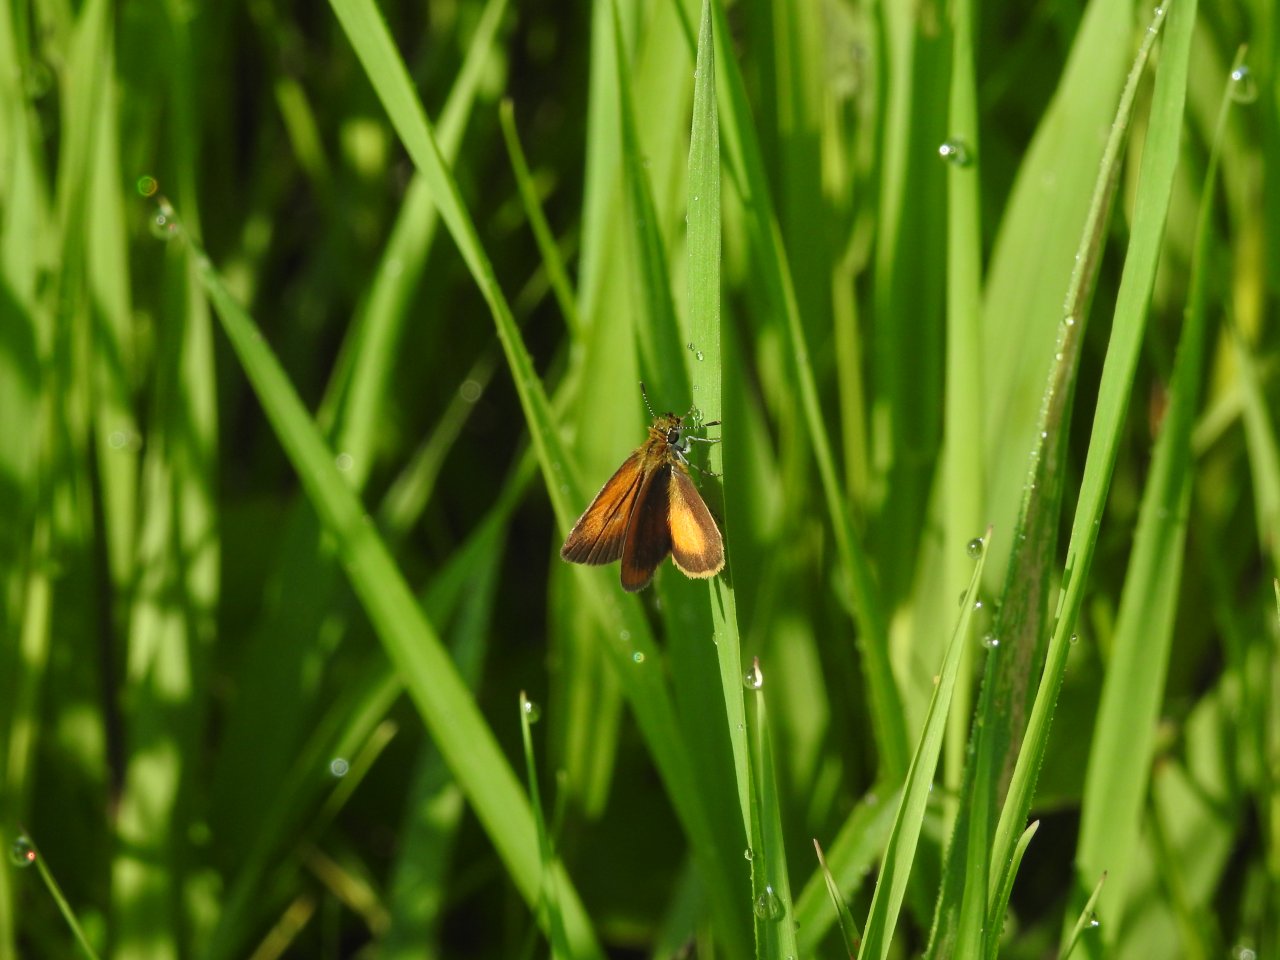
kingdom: Animalia
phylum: Arthropoda
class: Insecta
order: Lepidoptera
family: Hesperiidae
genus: Ancyloxypha
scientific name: Ancyloxypha numitor
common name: Least Skipper
